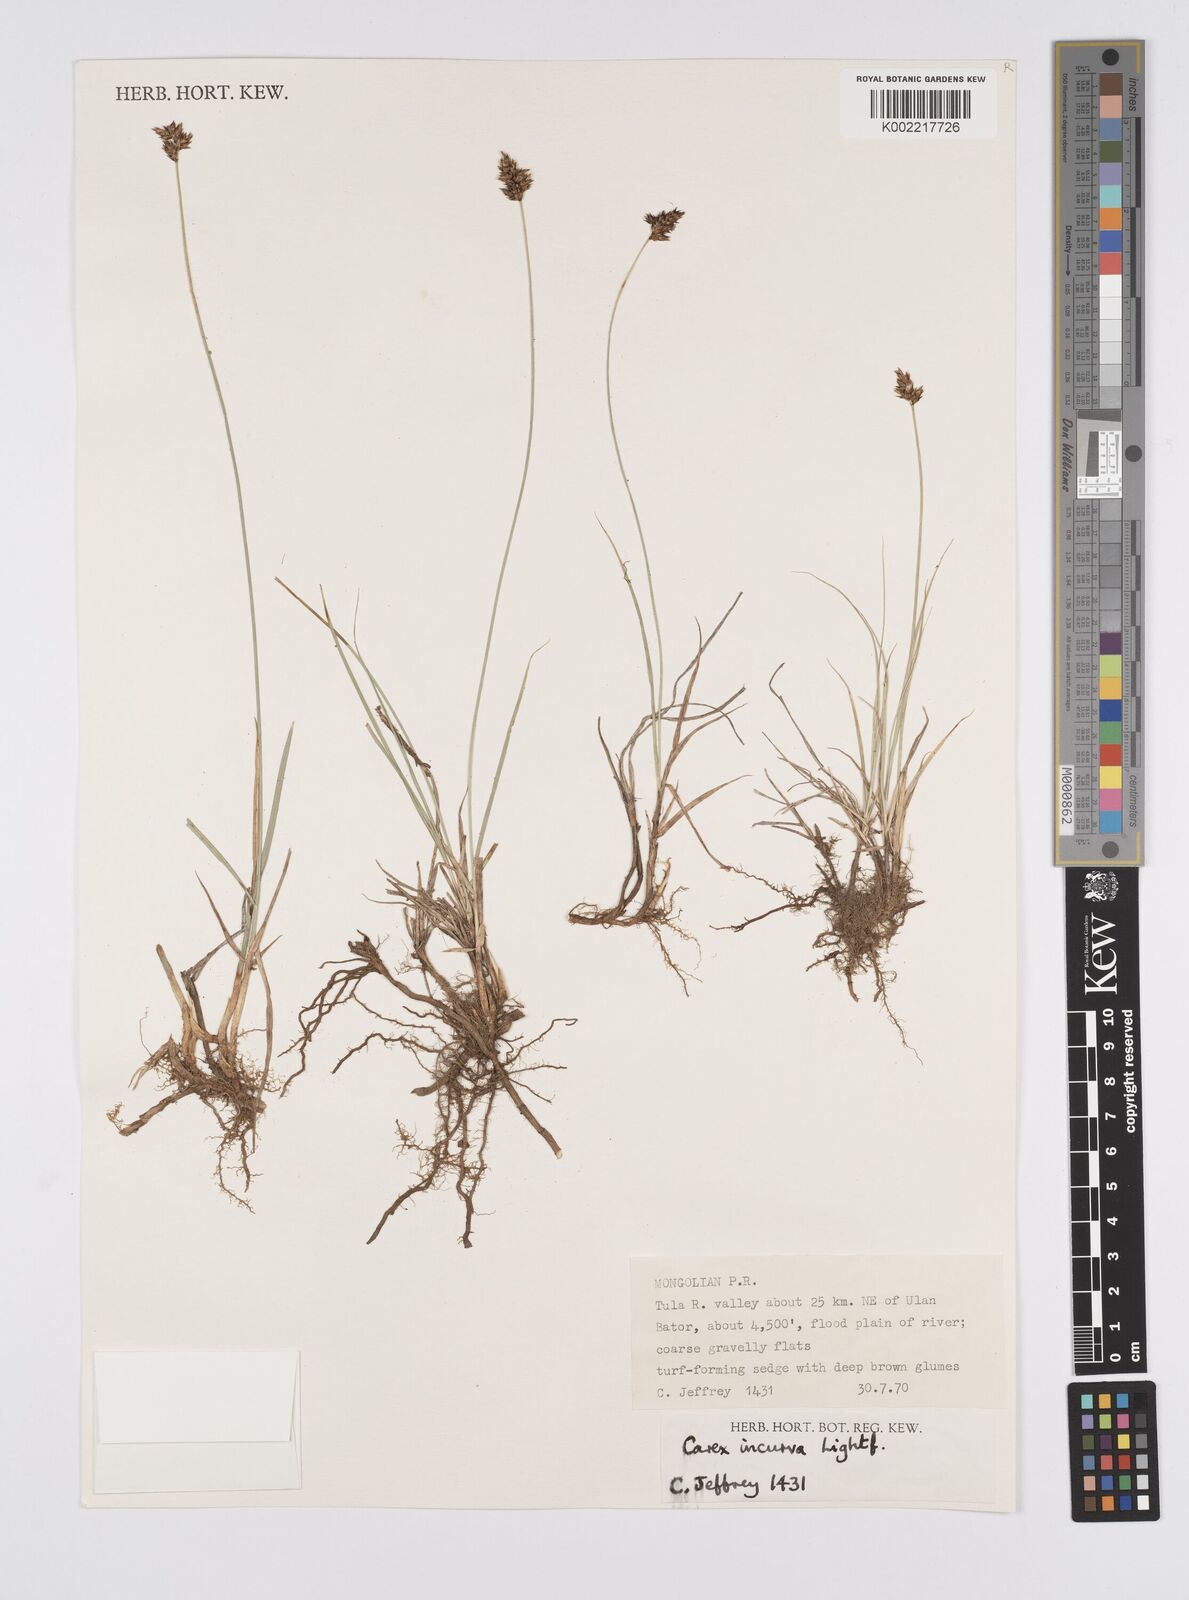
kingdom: Plantae
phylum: Tracheophyta
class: Liliopsida
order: Poales
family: Cyperaceae
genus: Carex
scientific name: Carex obtusata
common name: Blunt sedge
